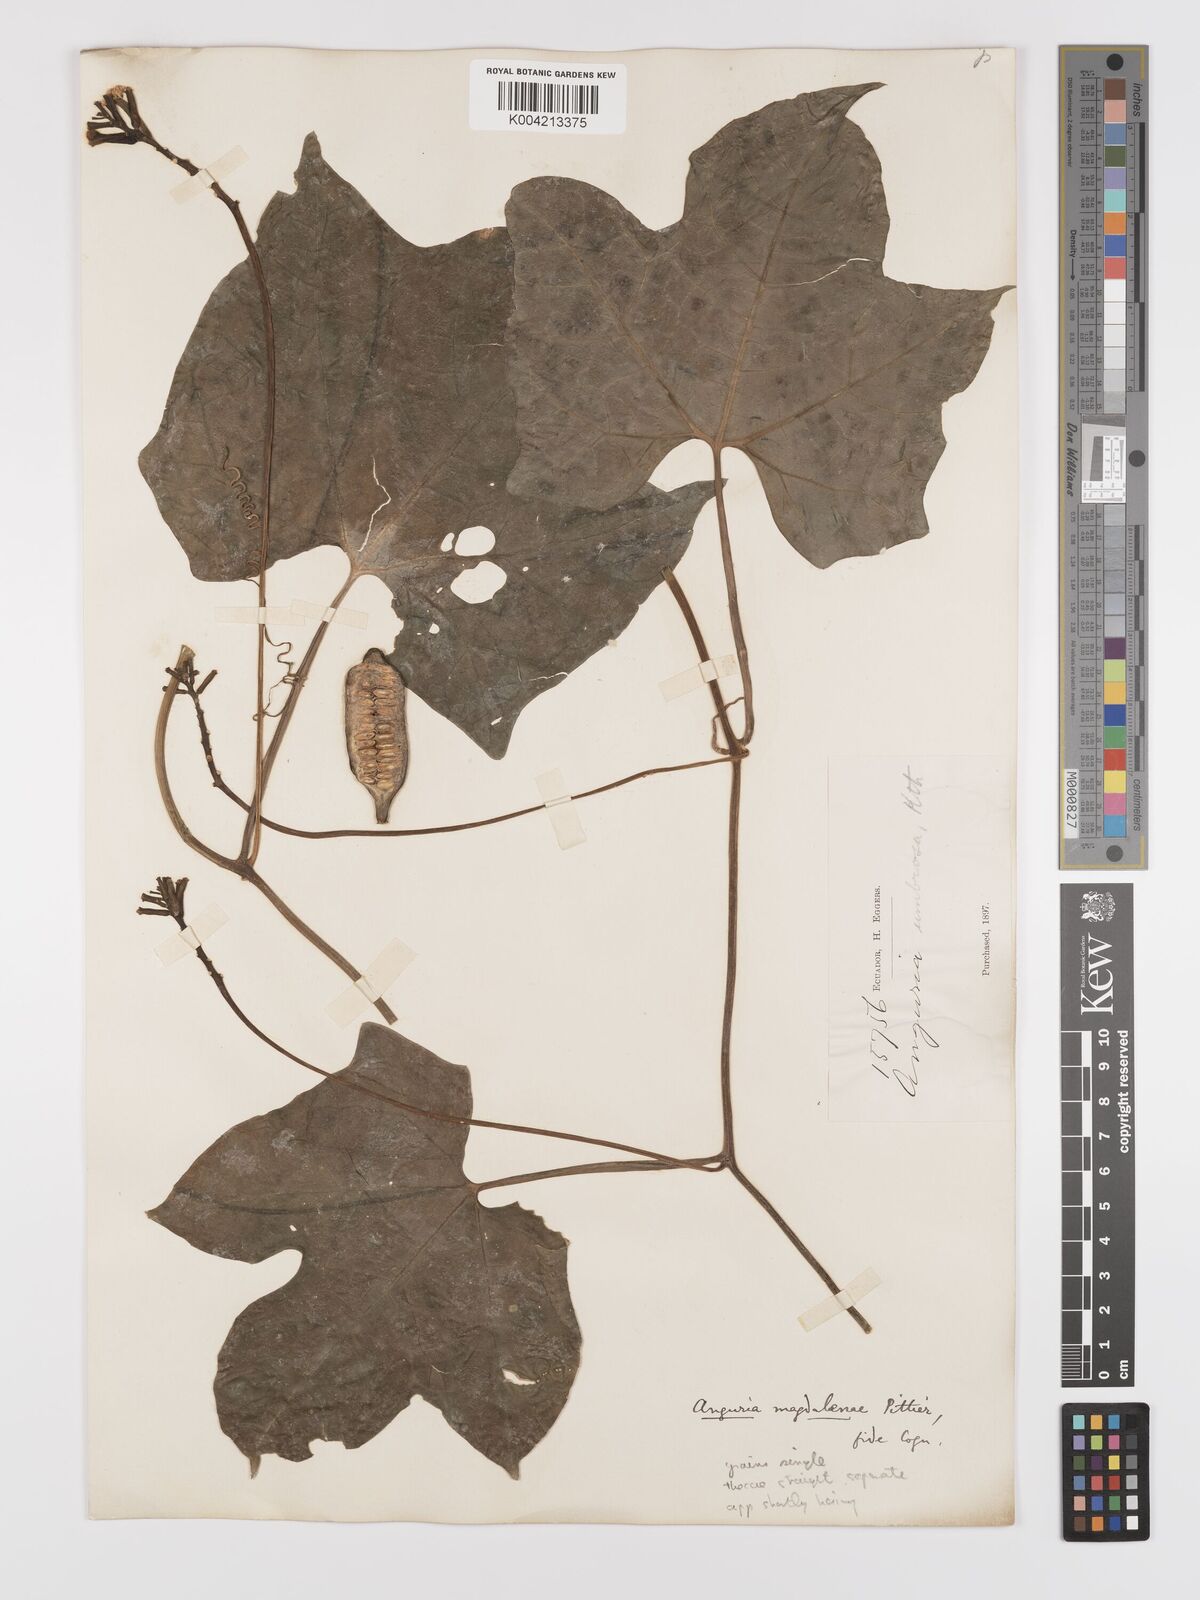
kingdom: Plantae
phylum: Tracheophyta
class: Magnoliopsida
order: Cucurbitales
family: Cucurbitaceae
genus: Psiguria
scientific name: Psiguria warscewiczii
